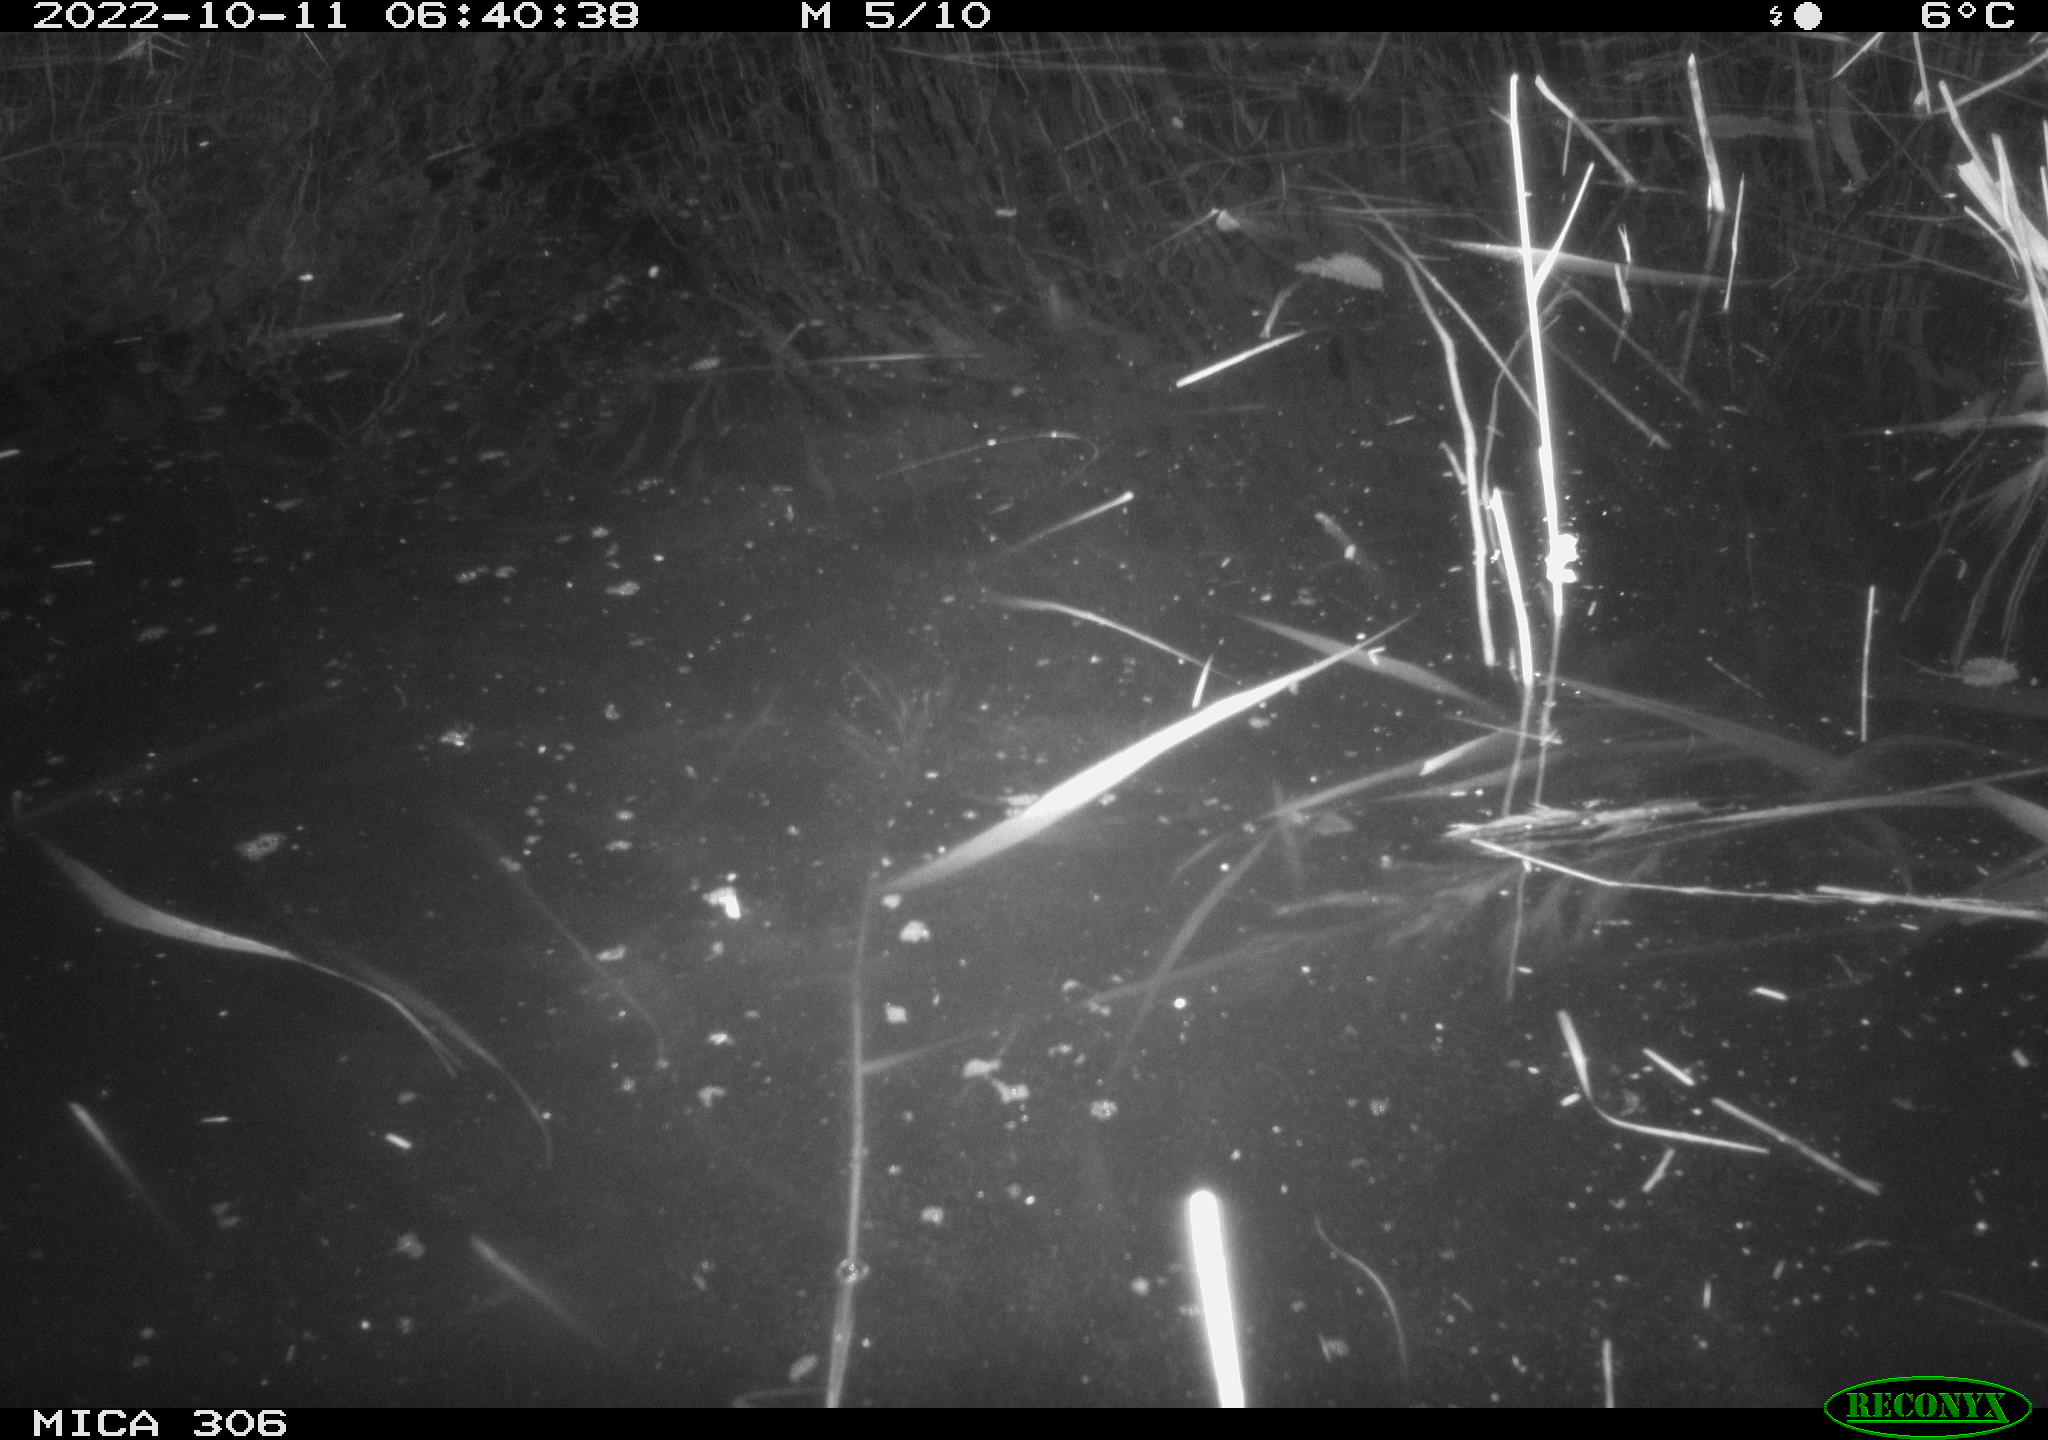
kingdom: Animalia
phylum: Chordata
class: Mammalia
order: Rodentia
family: Muridae
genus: Rattus
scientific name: Rattus norvegicus
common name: Brown rat
